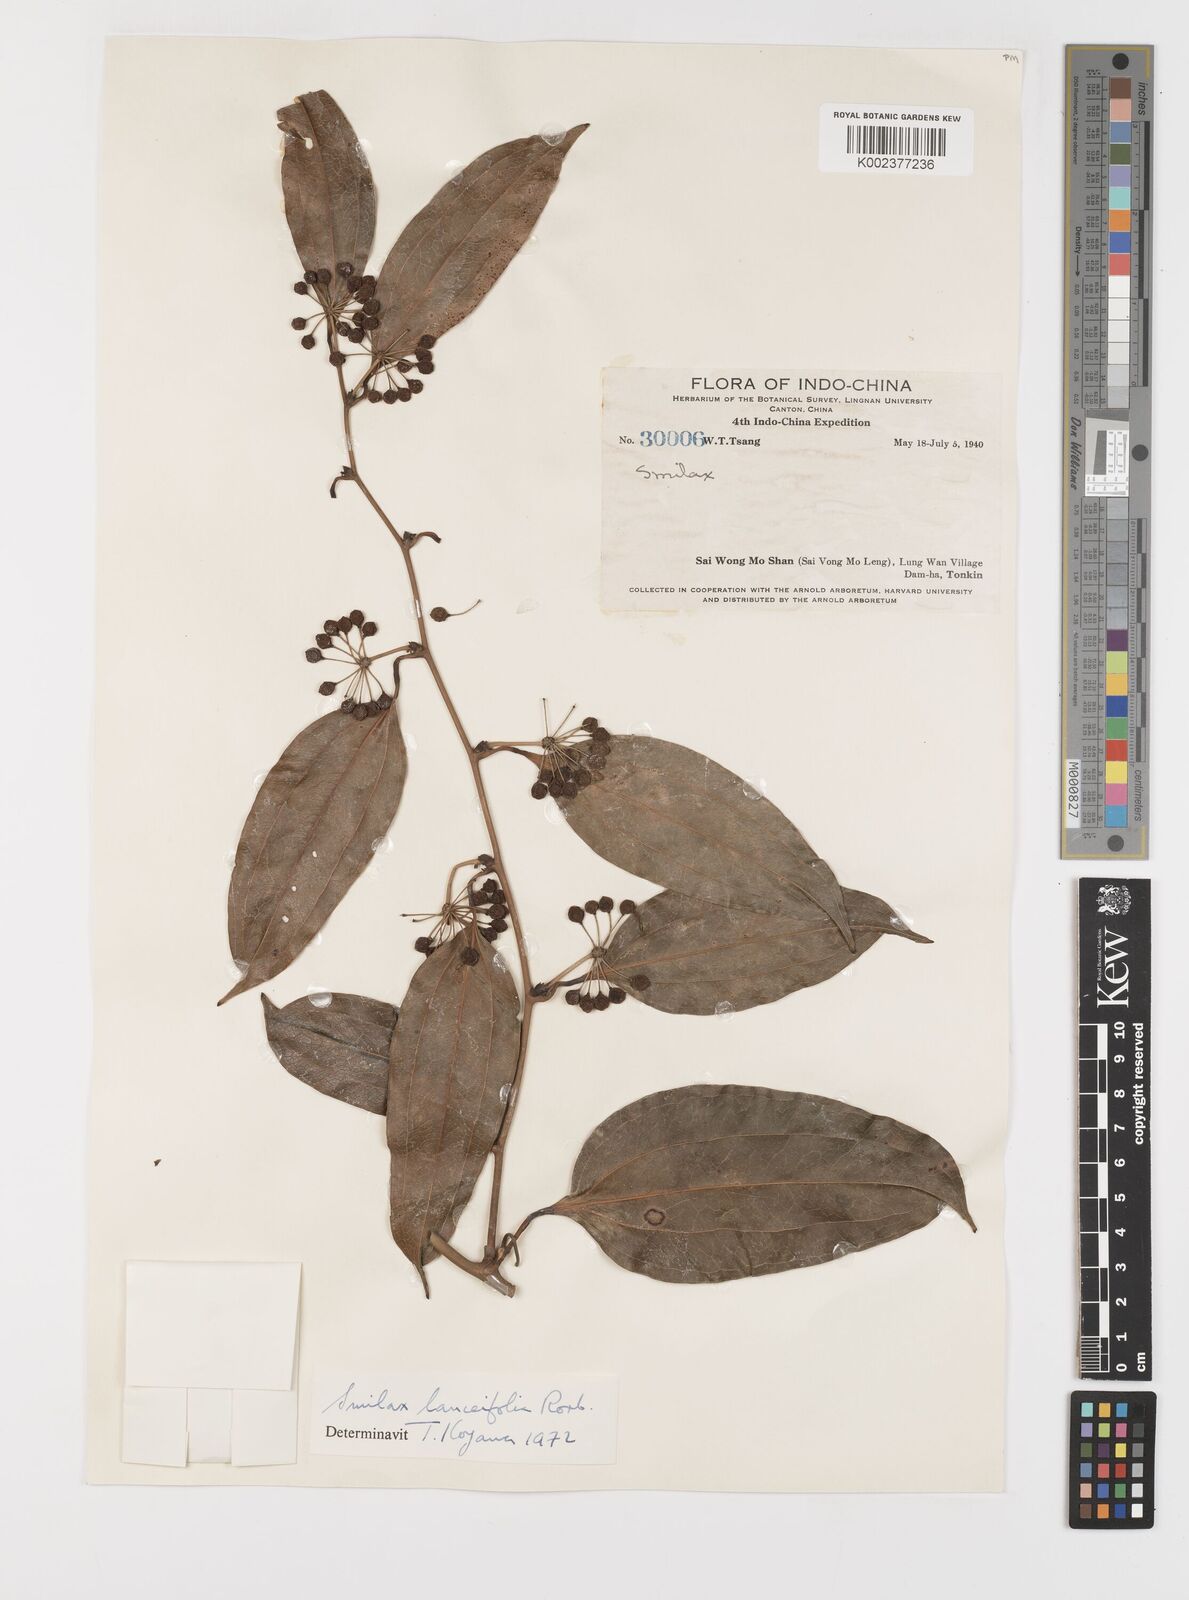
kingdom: Plantae
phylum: Tracheophyta
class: Liliopsida
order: Liliales
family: Smilacaceae
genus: Smilax
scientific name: Smilax lanceifolia
